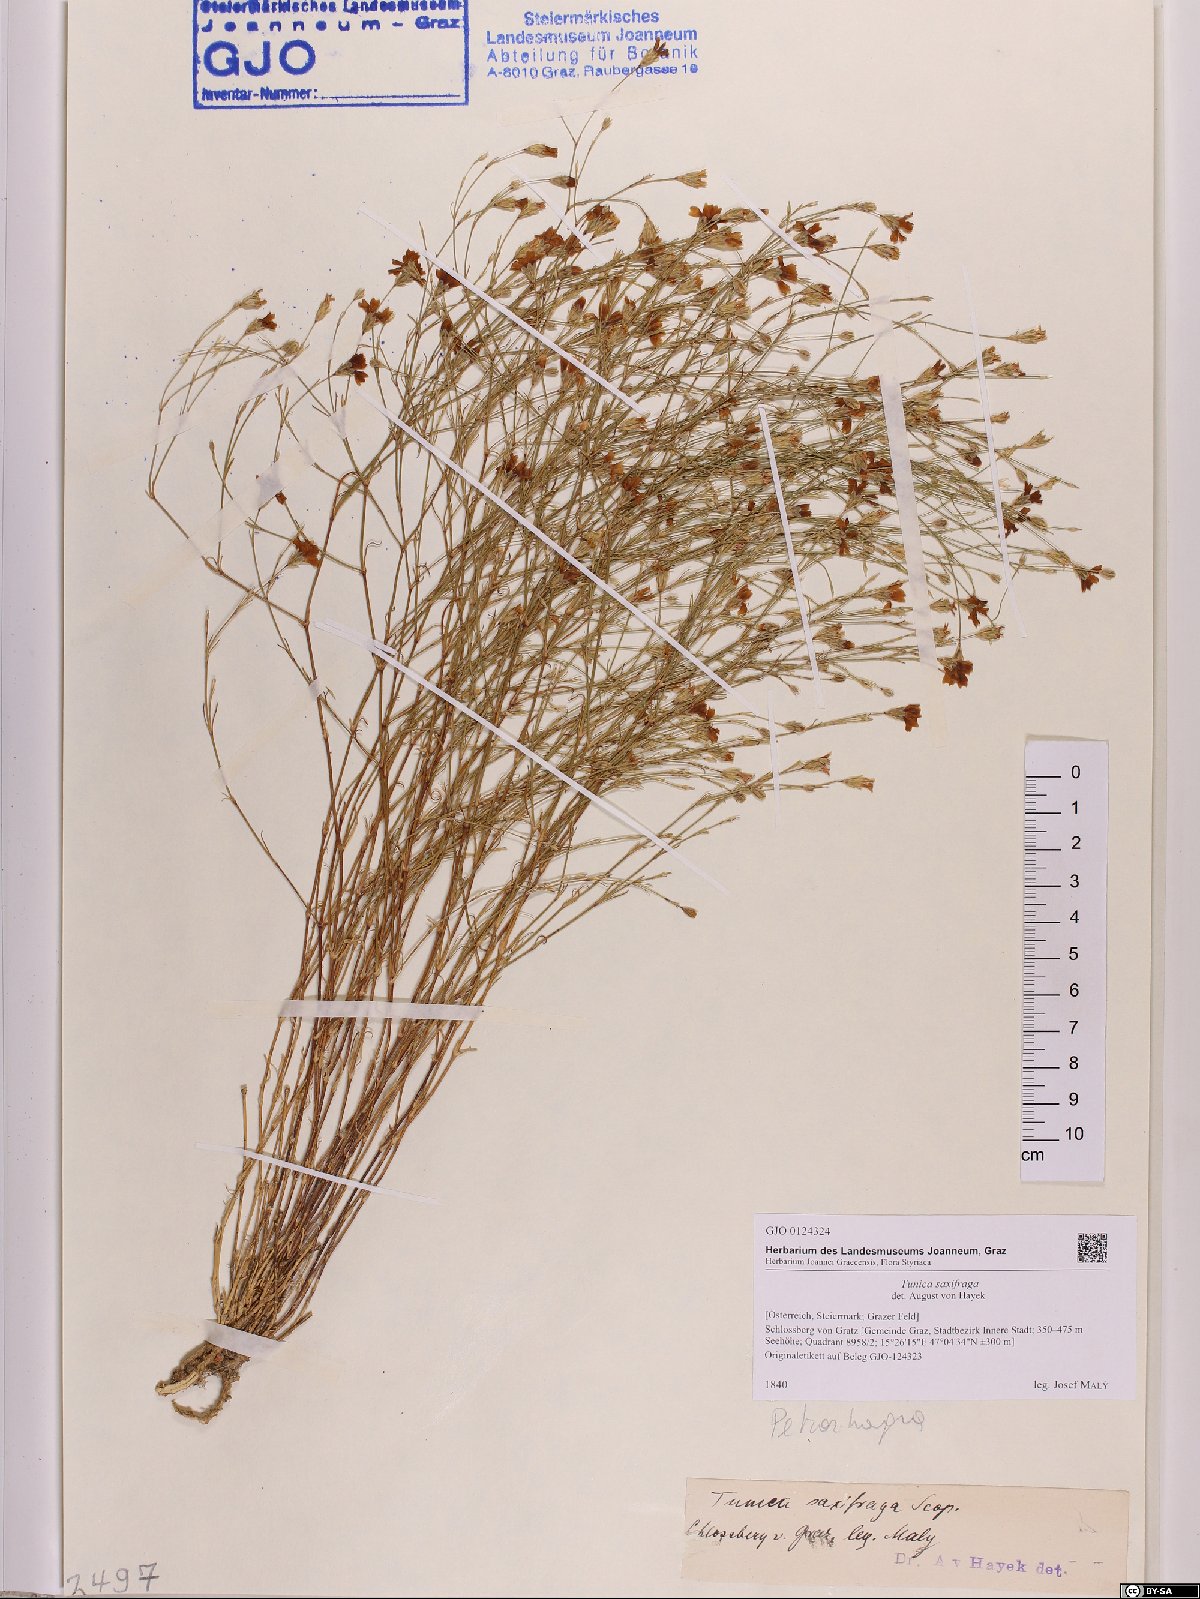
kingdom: Plantae
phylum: Tracheophyta
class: Magnoliopsida
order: Caryophyllales
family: Caryophyllaceae
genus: Petrorhagia
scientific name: Petrorhagia saxifraga
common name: Tunicflower
